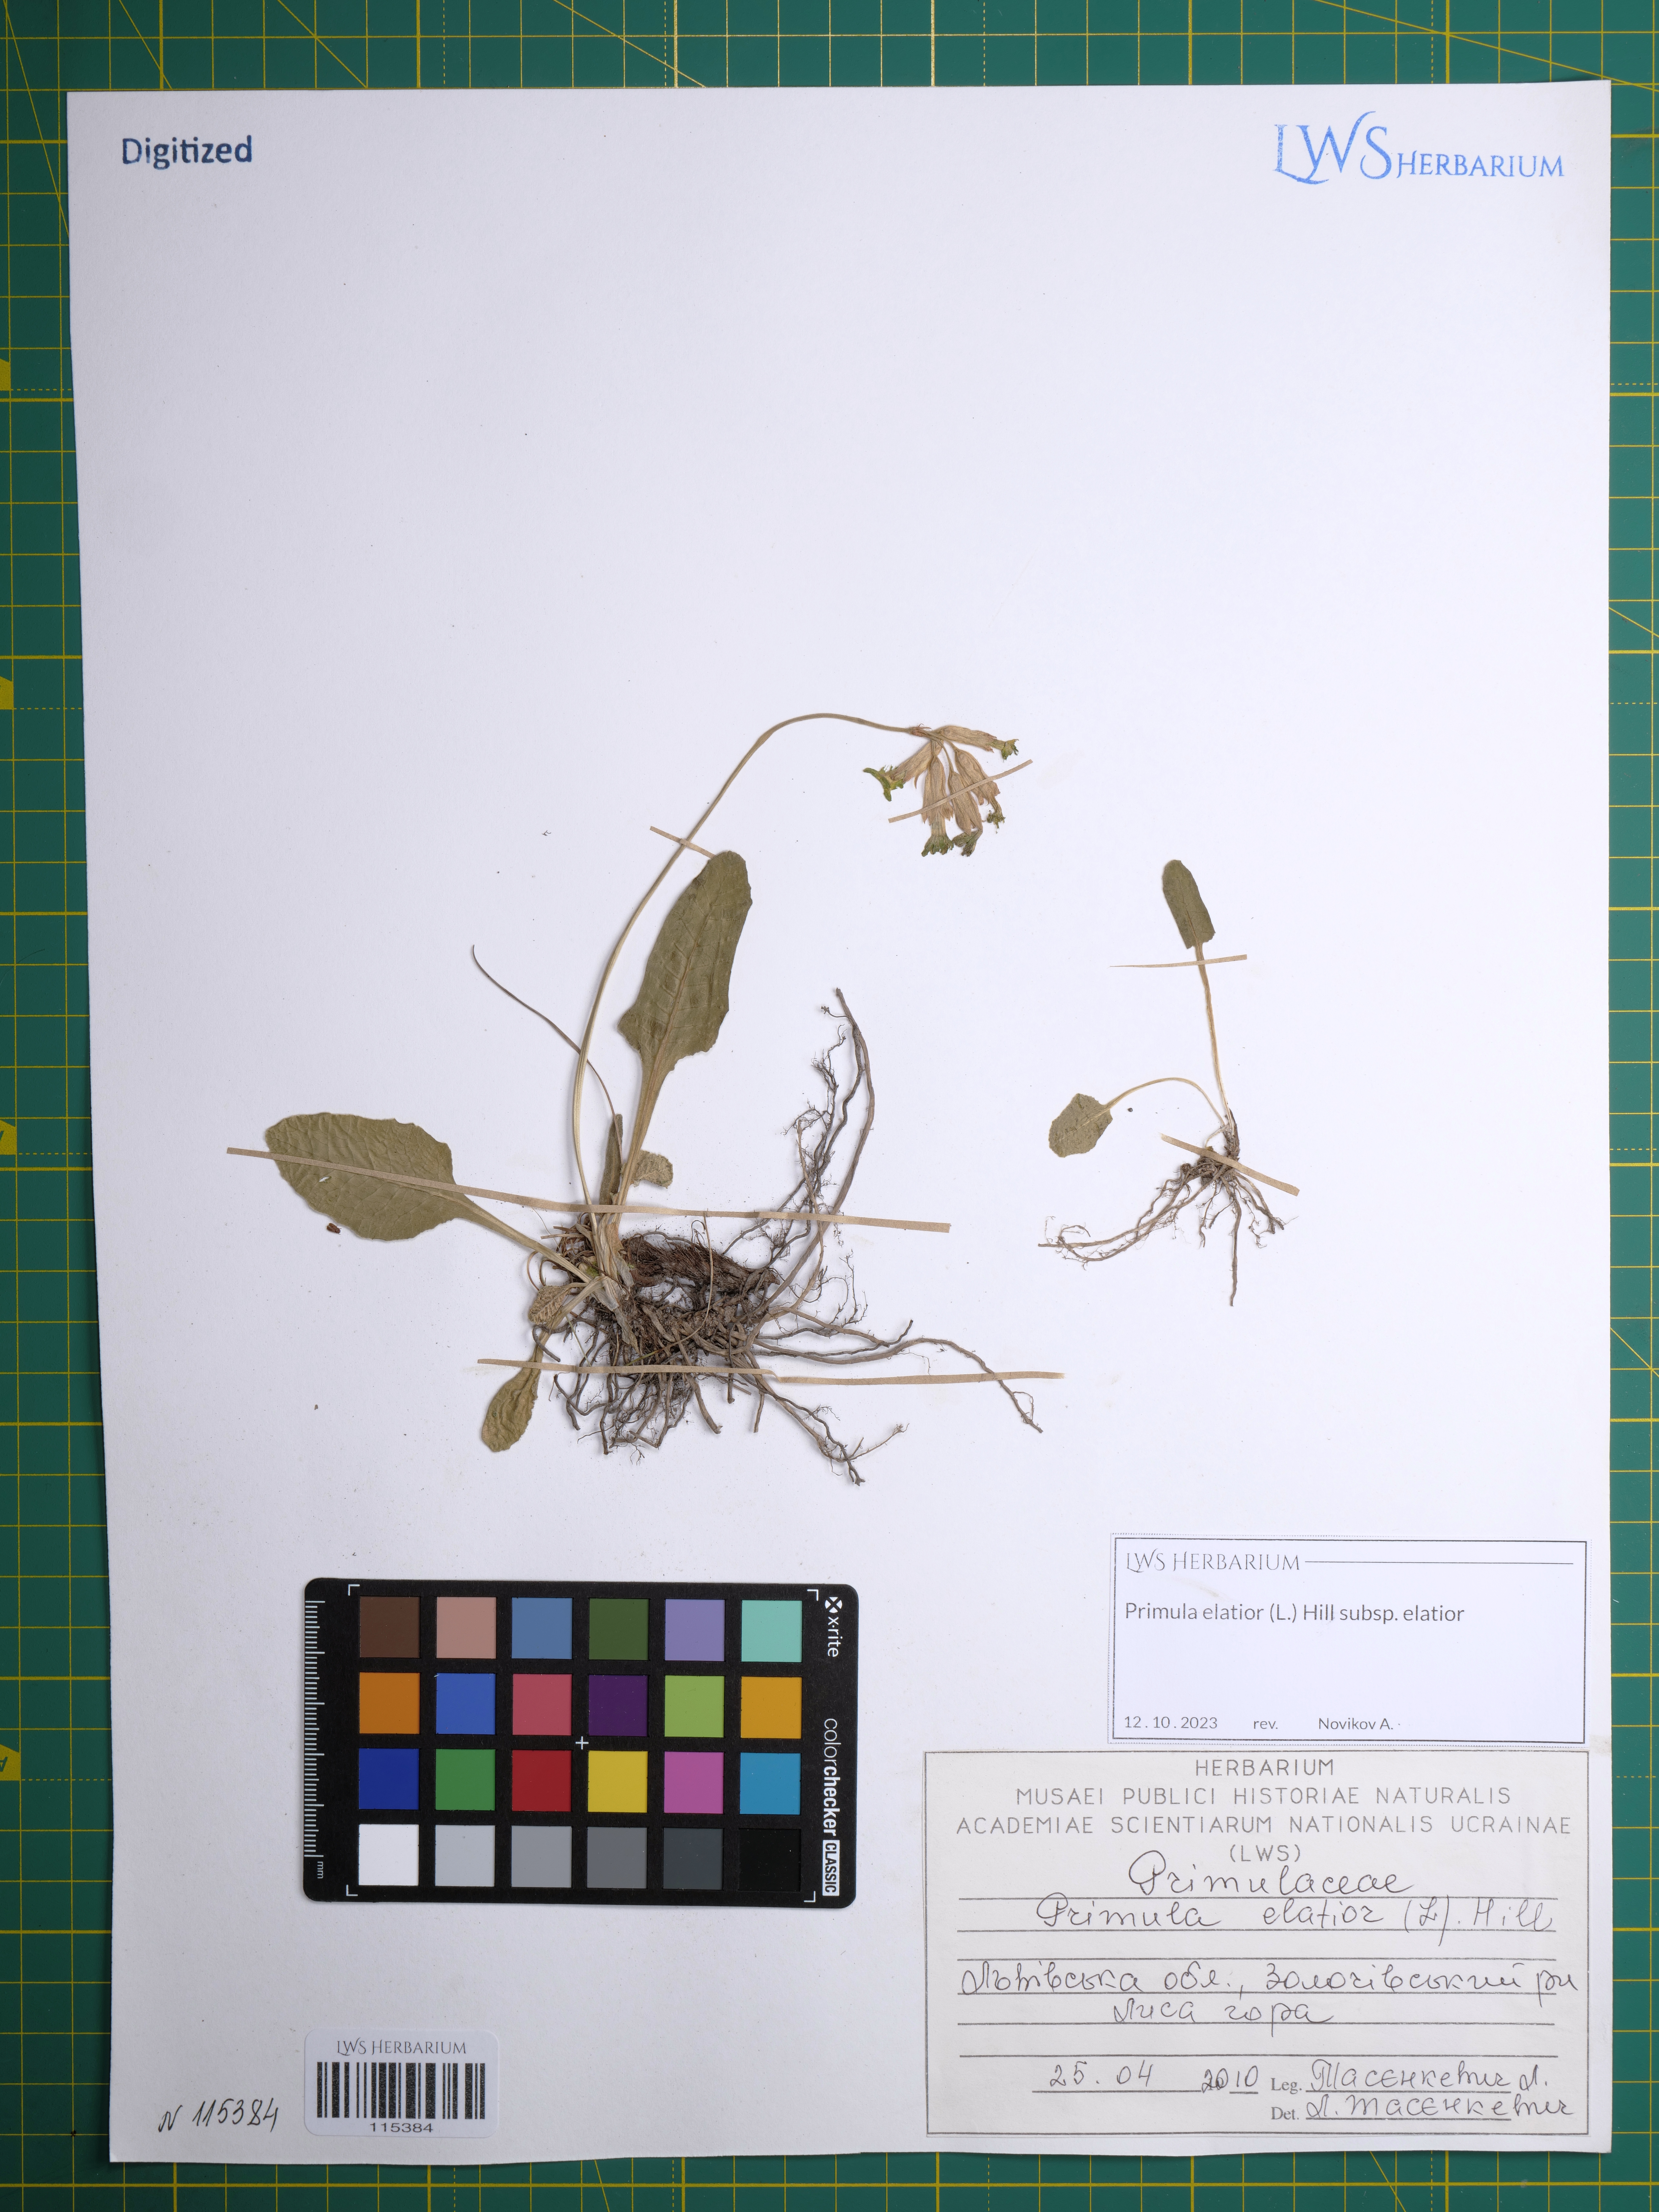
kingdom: Plantae
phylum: Tracheophyta
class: Magnoliopsida
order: Ericales
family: Primulaceae
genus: Primula
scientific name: Primula elatior
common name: Oxlip
